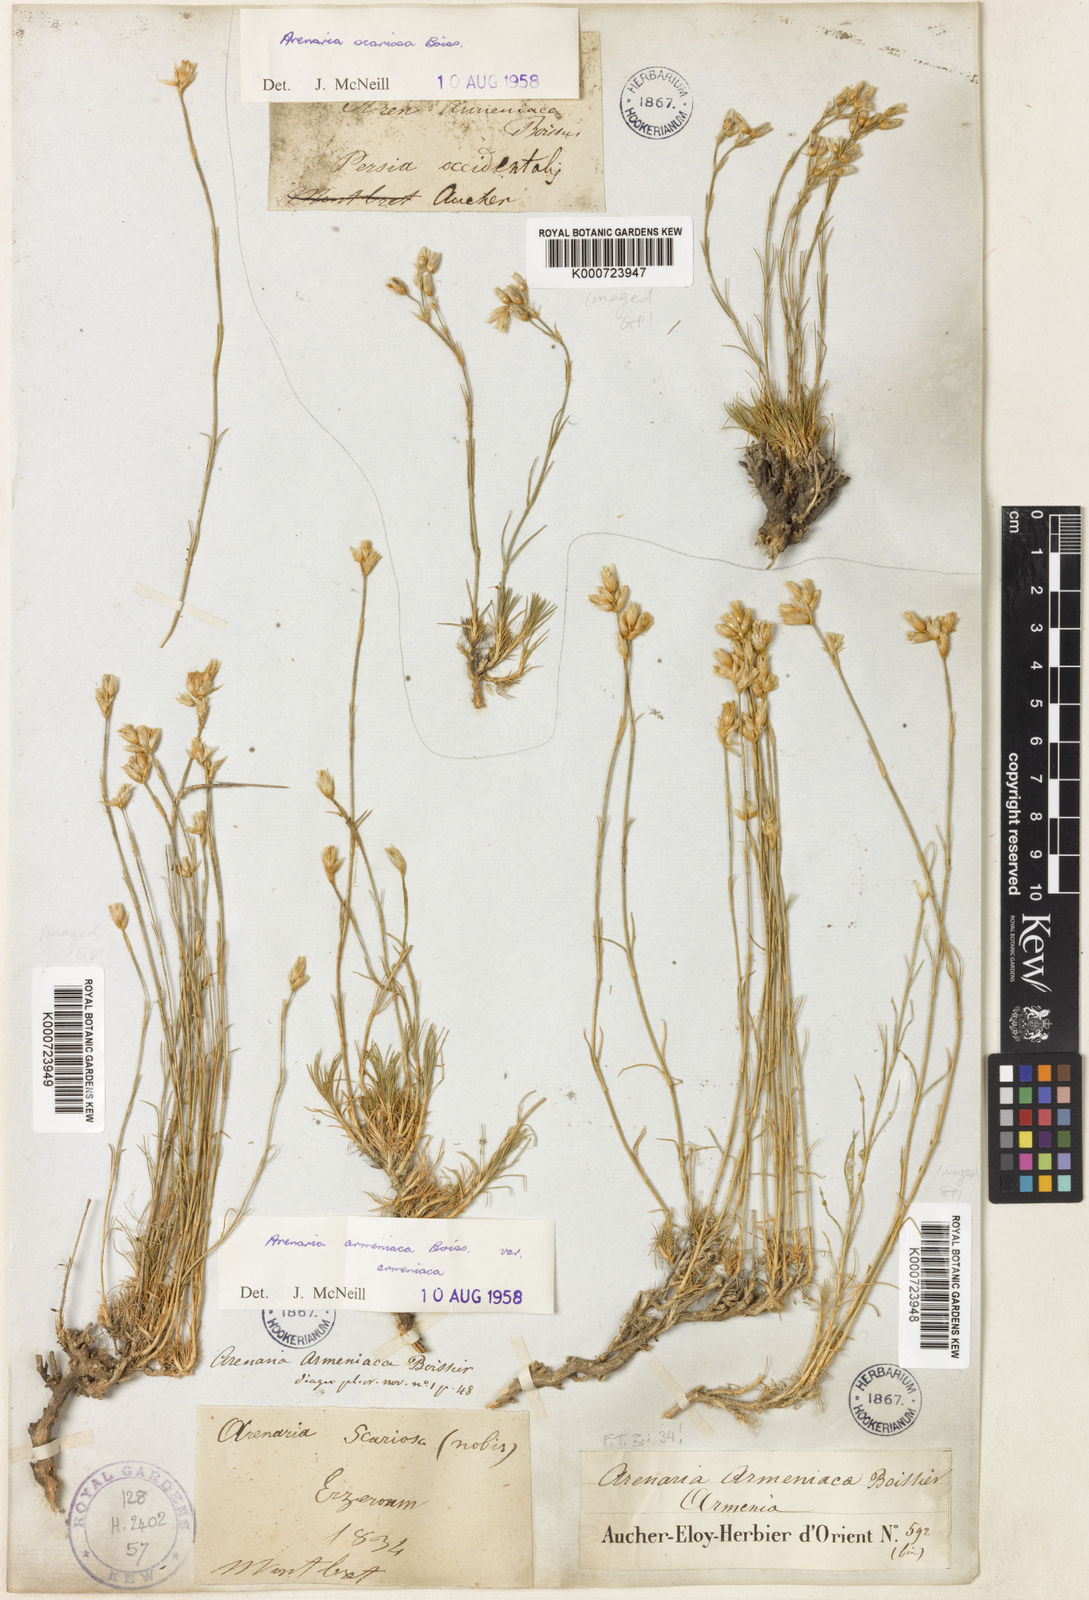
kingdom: Plantae
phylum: Tracheophyta
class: Magnoliopsida
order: Caryophyllales
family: Caryophyllaceae
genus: Eremogone
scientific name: Eremogone armeniaca
